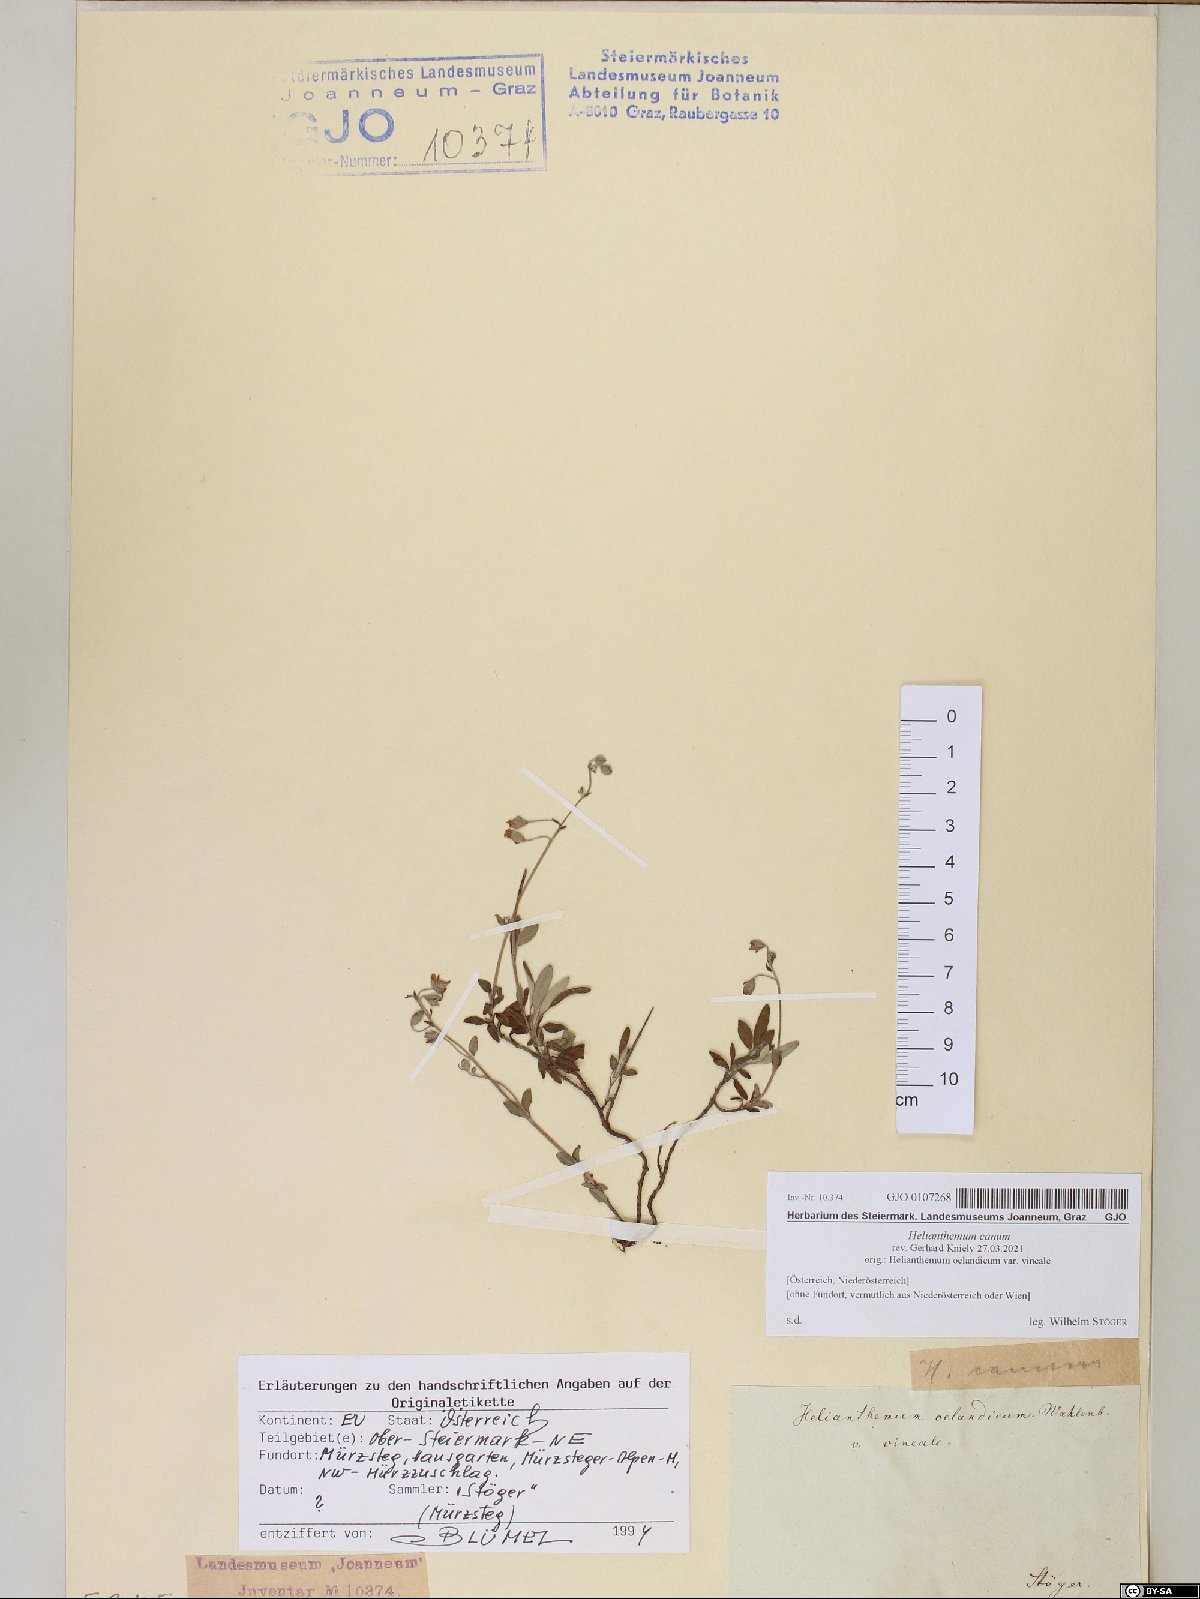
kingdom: Plantae
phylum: Tracheophyta
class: Magnoliopsida
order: Malvales
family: Cistaceae
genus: Helianthemum
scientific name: Helianthemum canum
